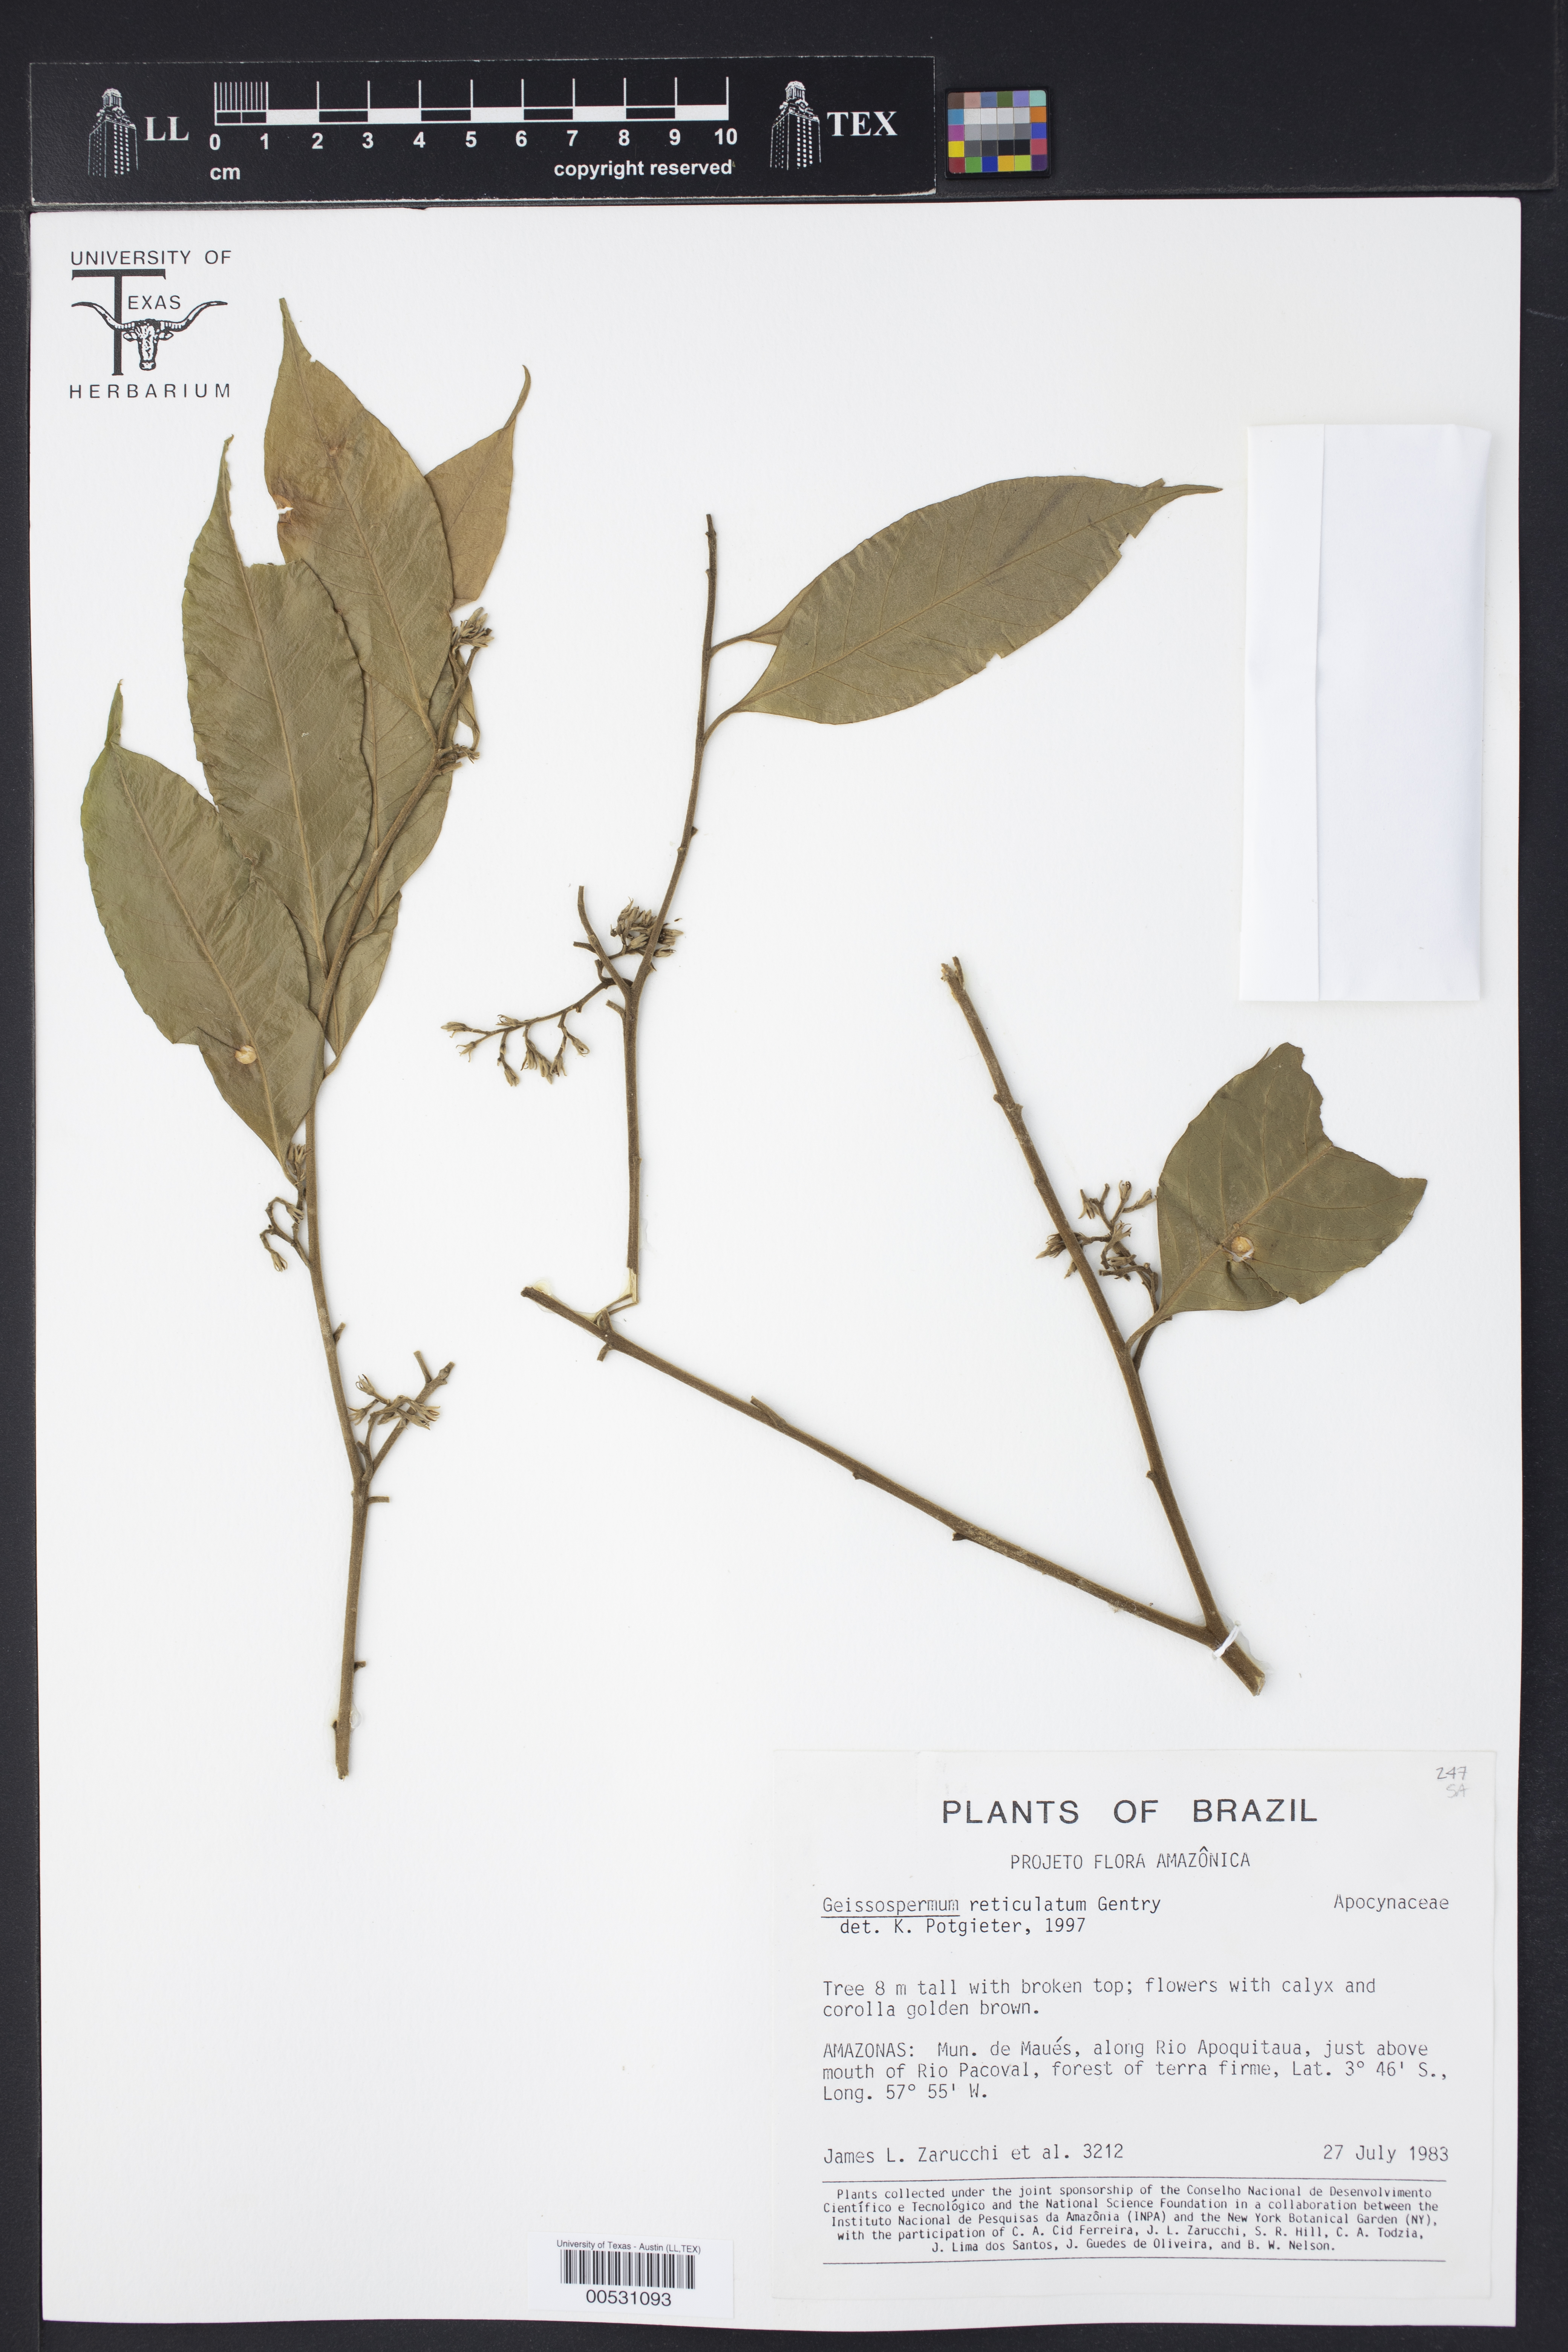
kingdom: Plantae
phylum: Tracheophyta
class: Magnoliopsida
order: Gentianales
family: Apocynaceae
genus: Geissospermum
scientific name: Geissospermum reticulatum
